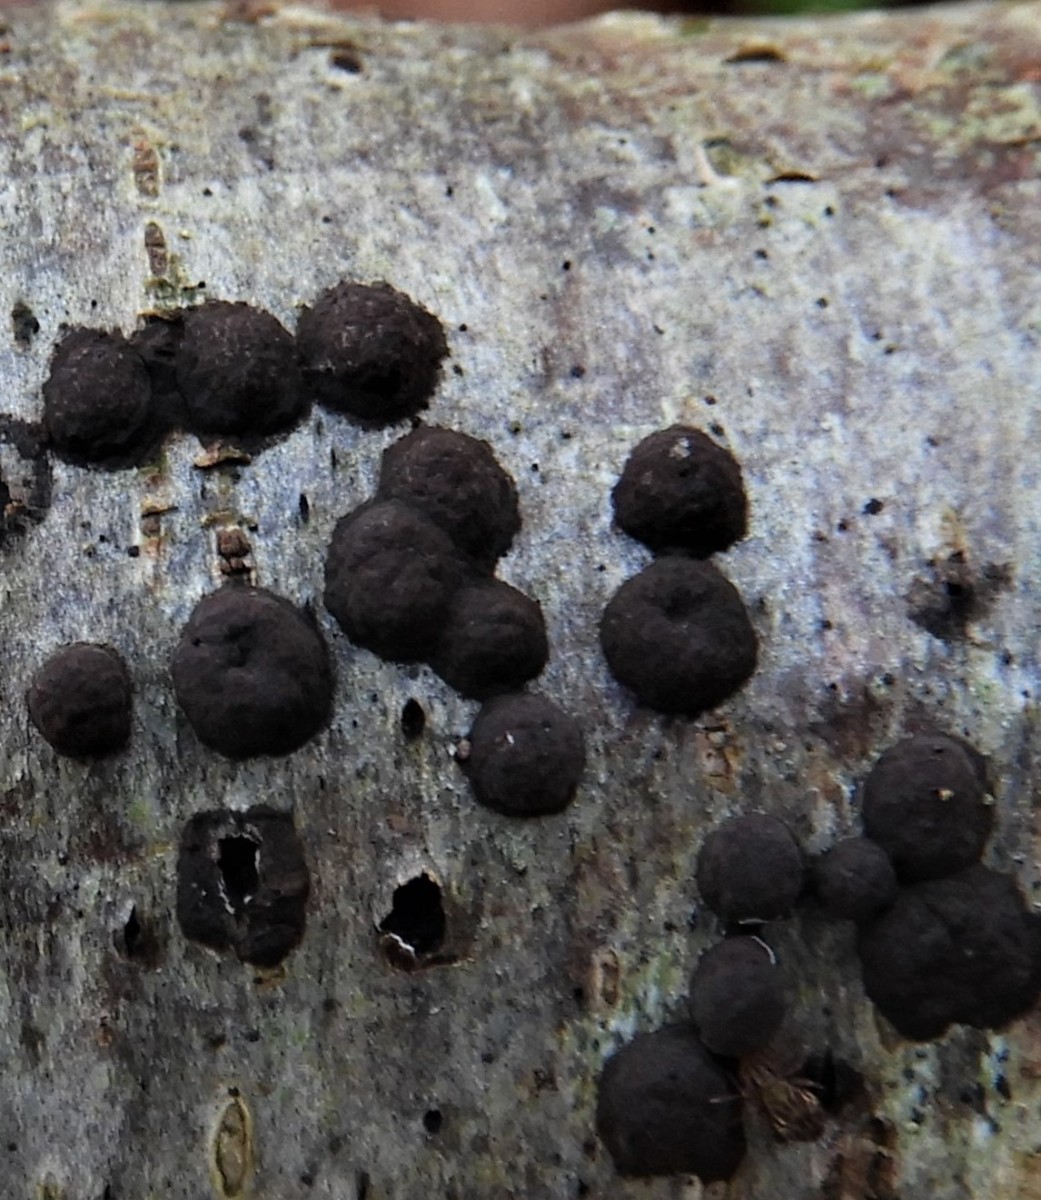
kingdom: Fungi
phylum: Ascomycota
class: Sordariomycetes
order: Xylariales
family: Hypoxylaceae
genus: Hypoxylon
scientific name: Hypoxylon fuscum
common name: kegleformet kulbær
